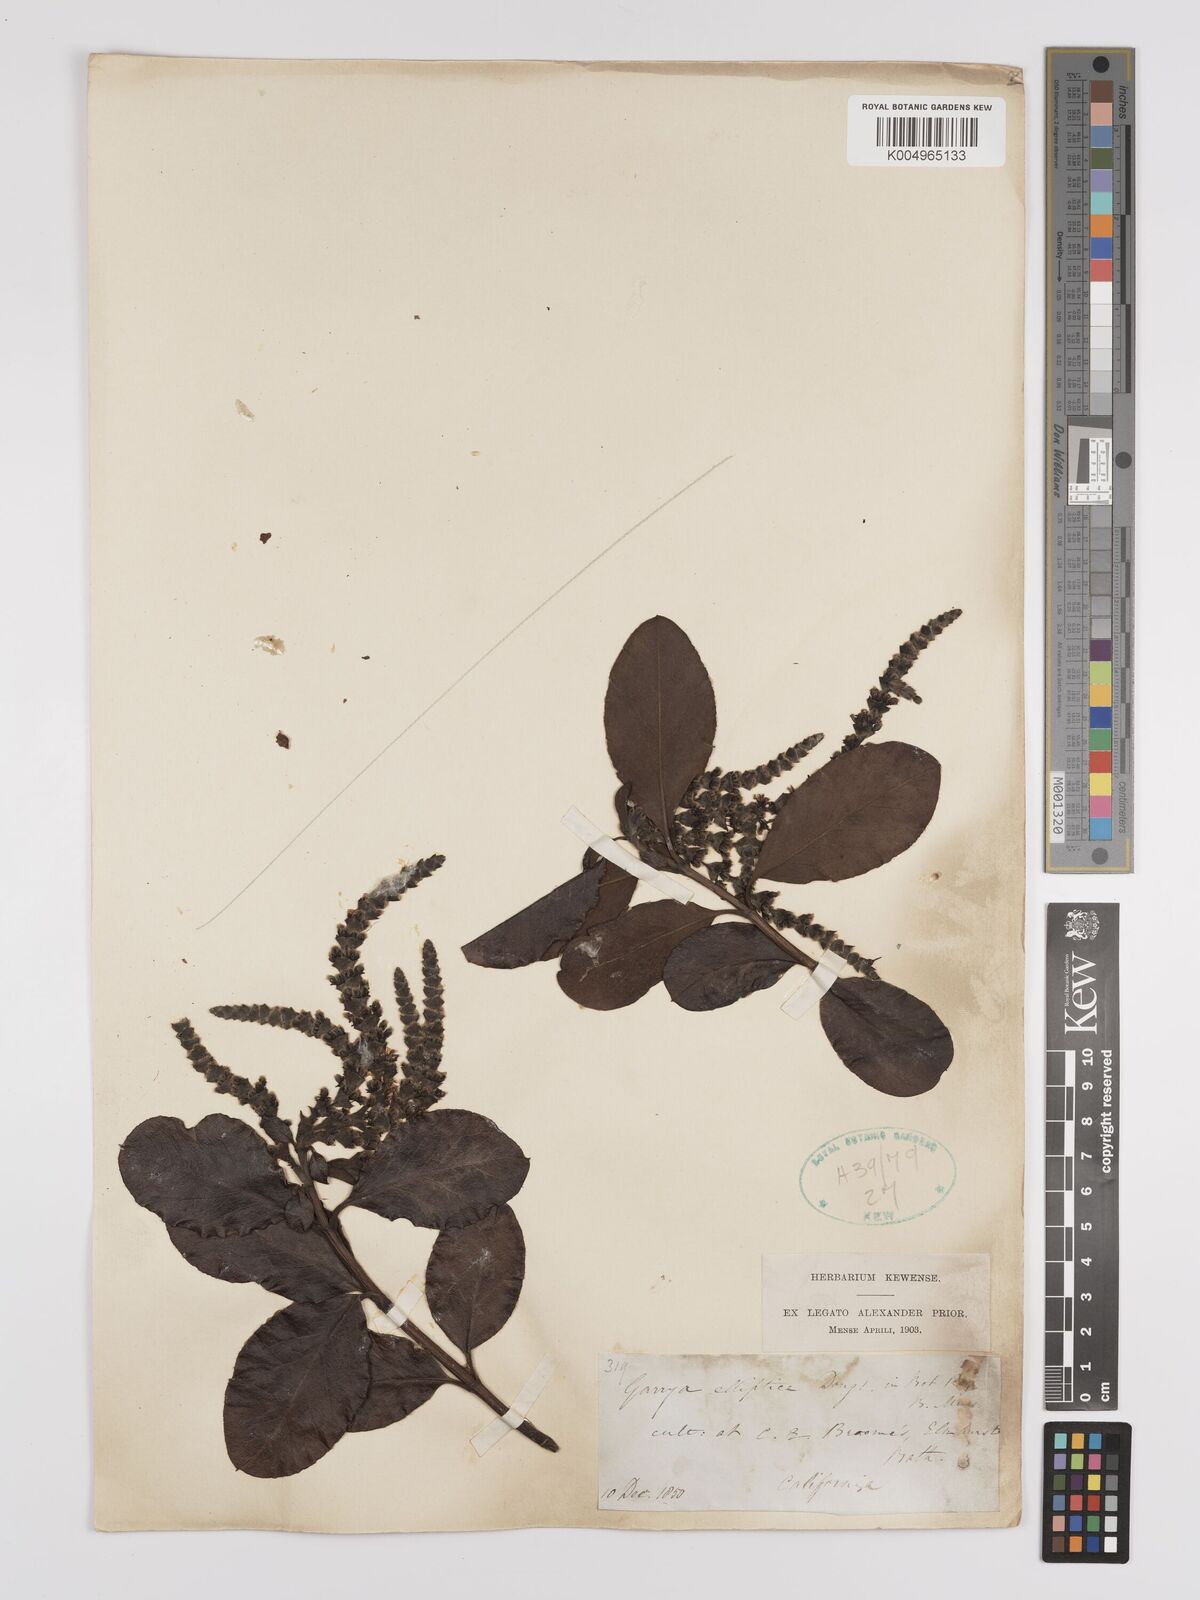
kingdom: Plantae
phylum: Tracheophyta
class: Magnoliopsida
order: Garryales
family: Garryaceae
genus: Garrya
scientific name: Garrya elliptica
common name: Silk-tassel
